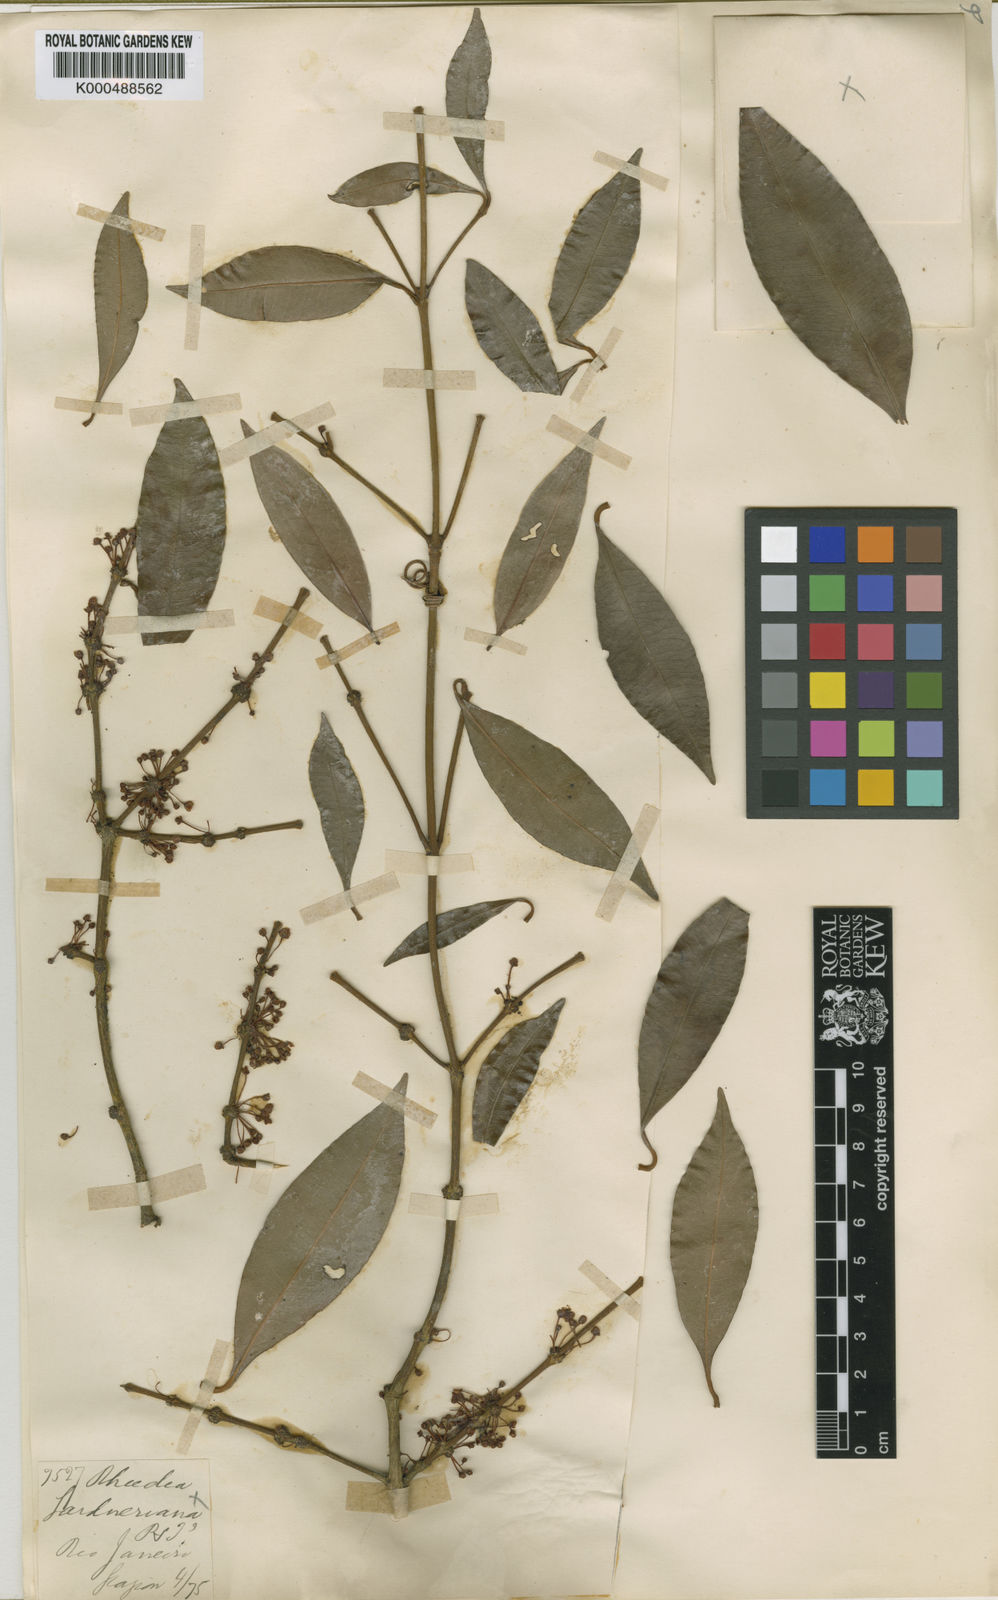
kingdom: Plantae
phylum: Tracheophyta
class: Magnoliopsida
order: Malpighiales
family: Clusiaceae
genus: Garcinia
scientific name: Garcinia gardneriana
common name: Achacha
